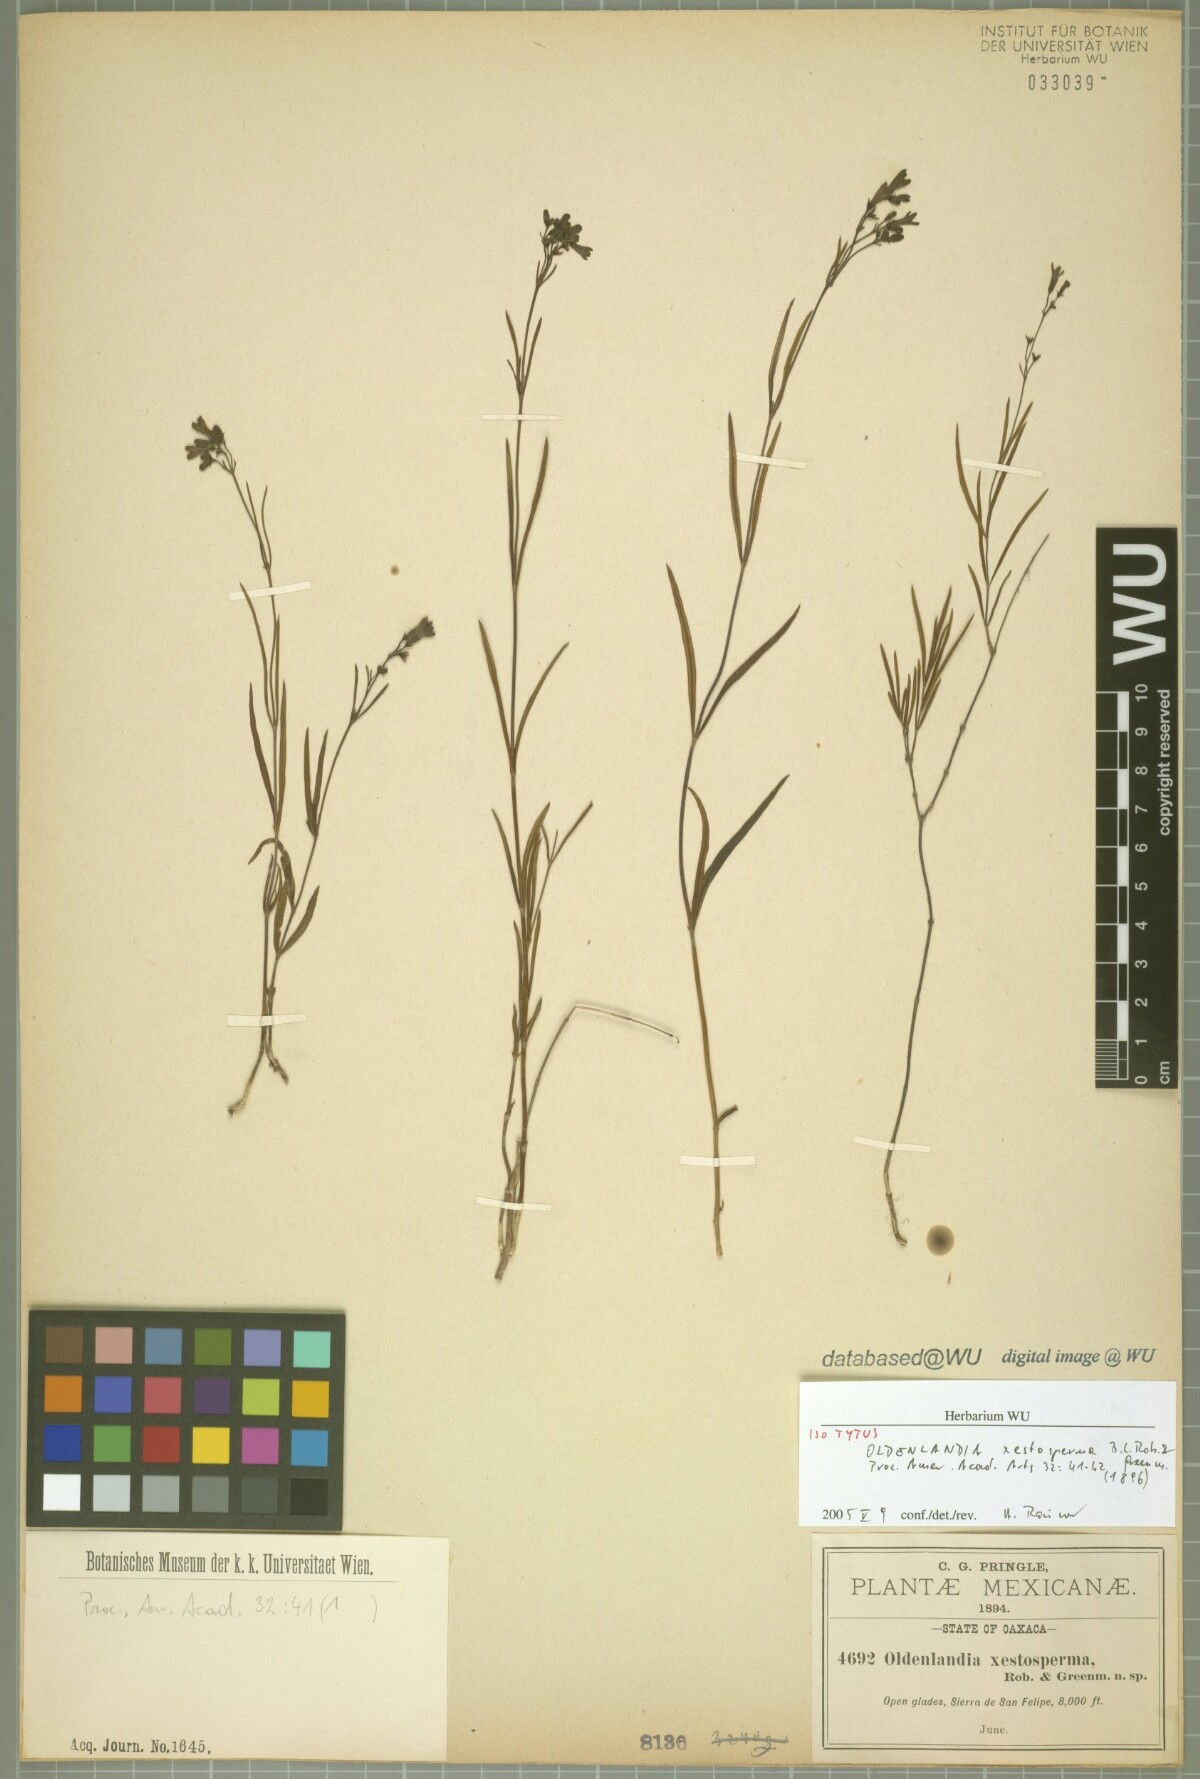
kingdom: Plantae
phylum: Tracheophyta
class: Magnoliopsida
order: Gentianales
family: Rubiaceae
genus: Bouvardia
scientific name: Bouvardia xestosperma
